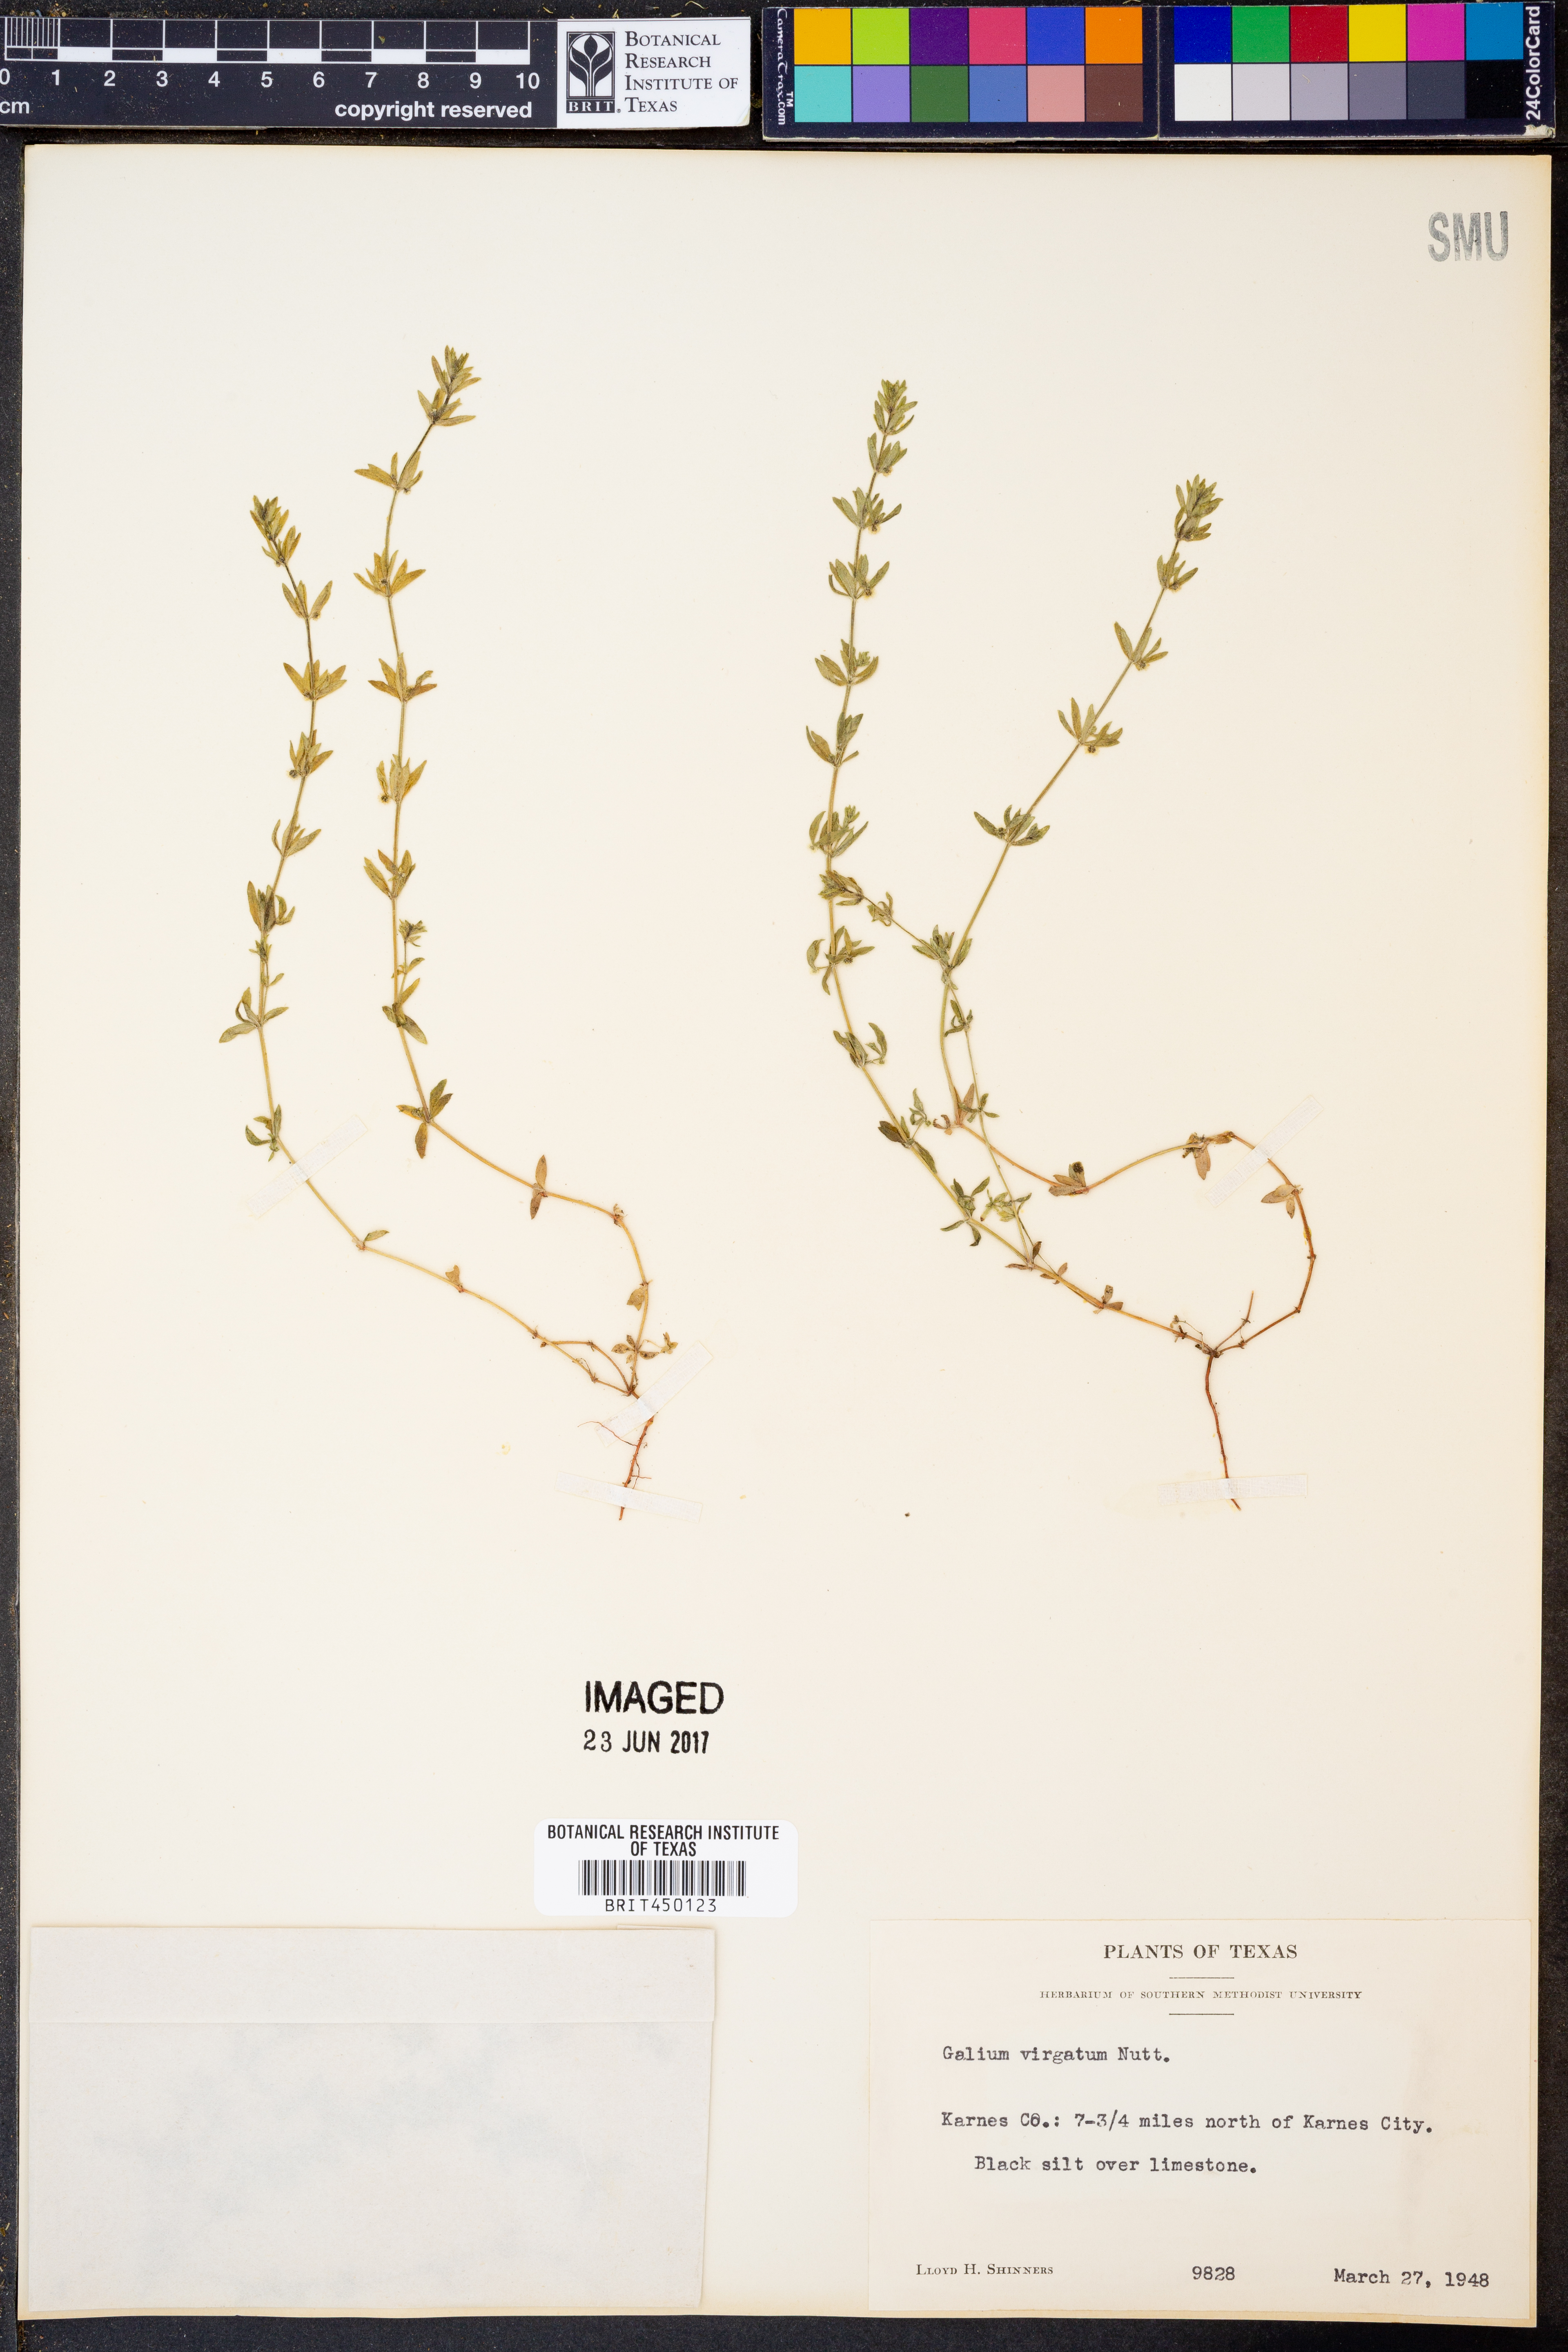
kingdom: Plantae
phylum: Tracheophyta
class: Magnoliopsida
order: Gentianales
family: Rubiaceae
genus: Galium
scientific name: Galium virgatum
